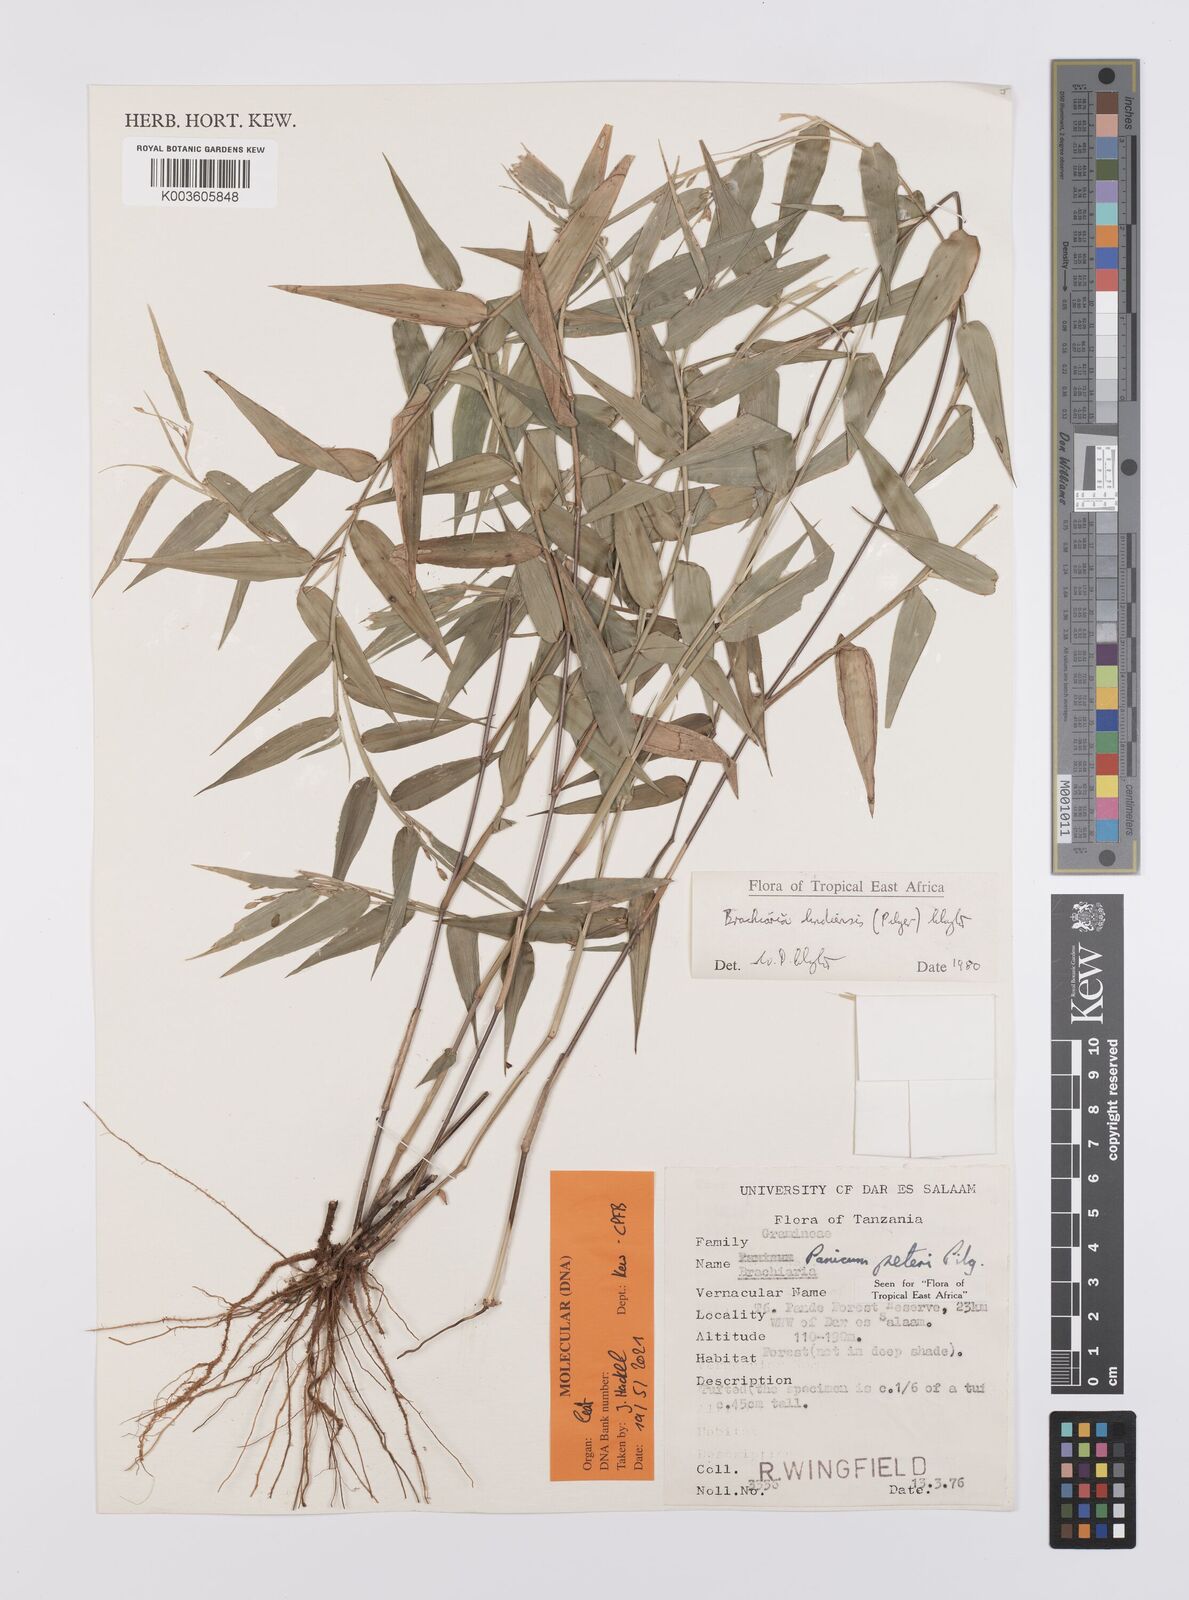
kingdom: Plantae
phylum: Tracheophyta
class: Liliopsida
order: Poales
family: Poaceae
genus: Urochloa
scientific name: Urochloa Brachiaria lindiensis
